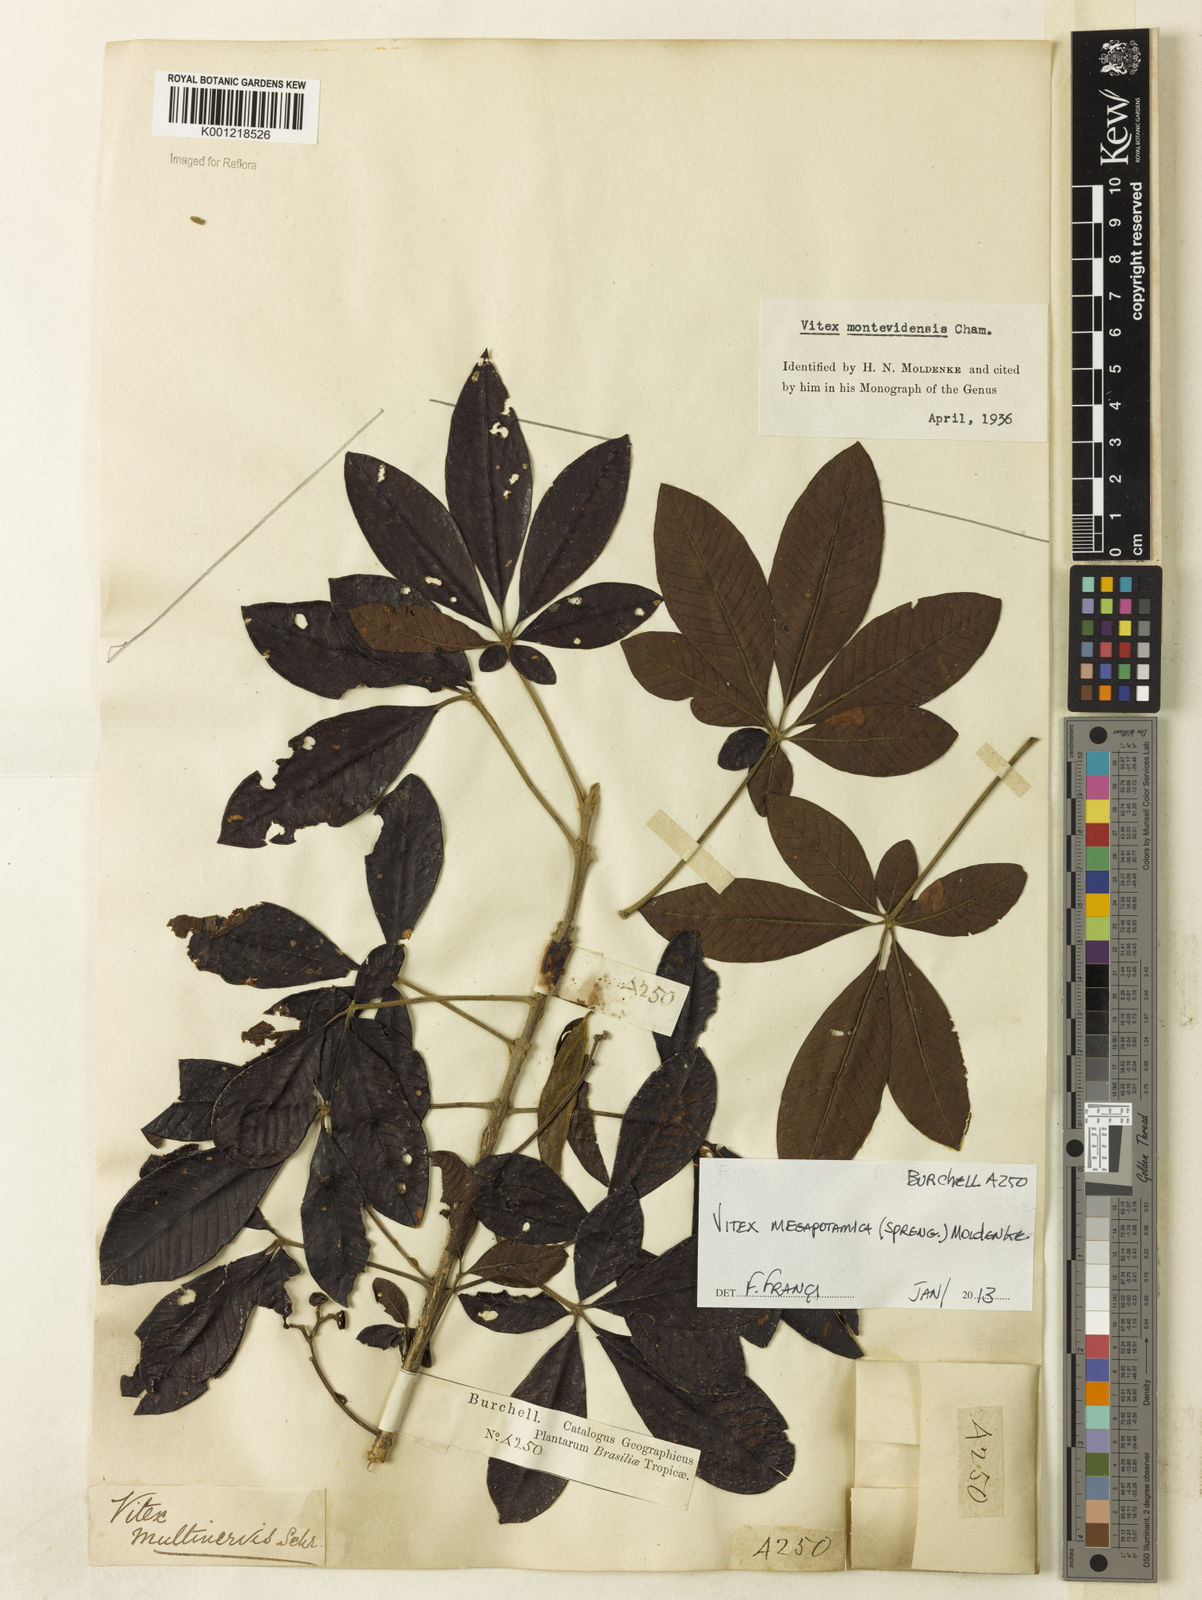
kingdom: Plantae
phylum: Tracheophyta
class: Magnoliopsida
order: Lamiales
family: Lamiaceae
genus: Vitex
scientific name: Vitex megapotamica
